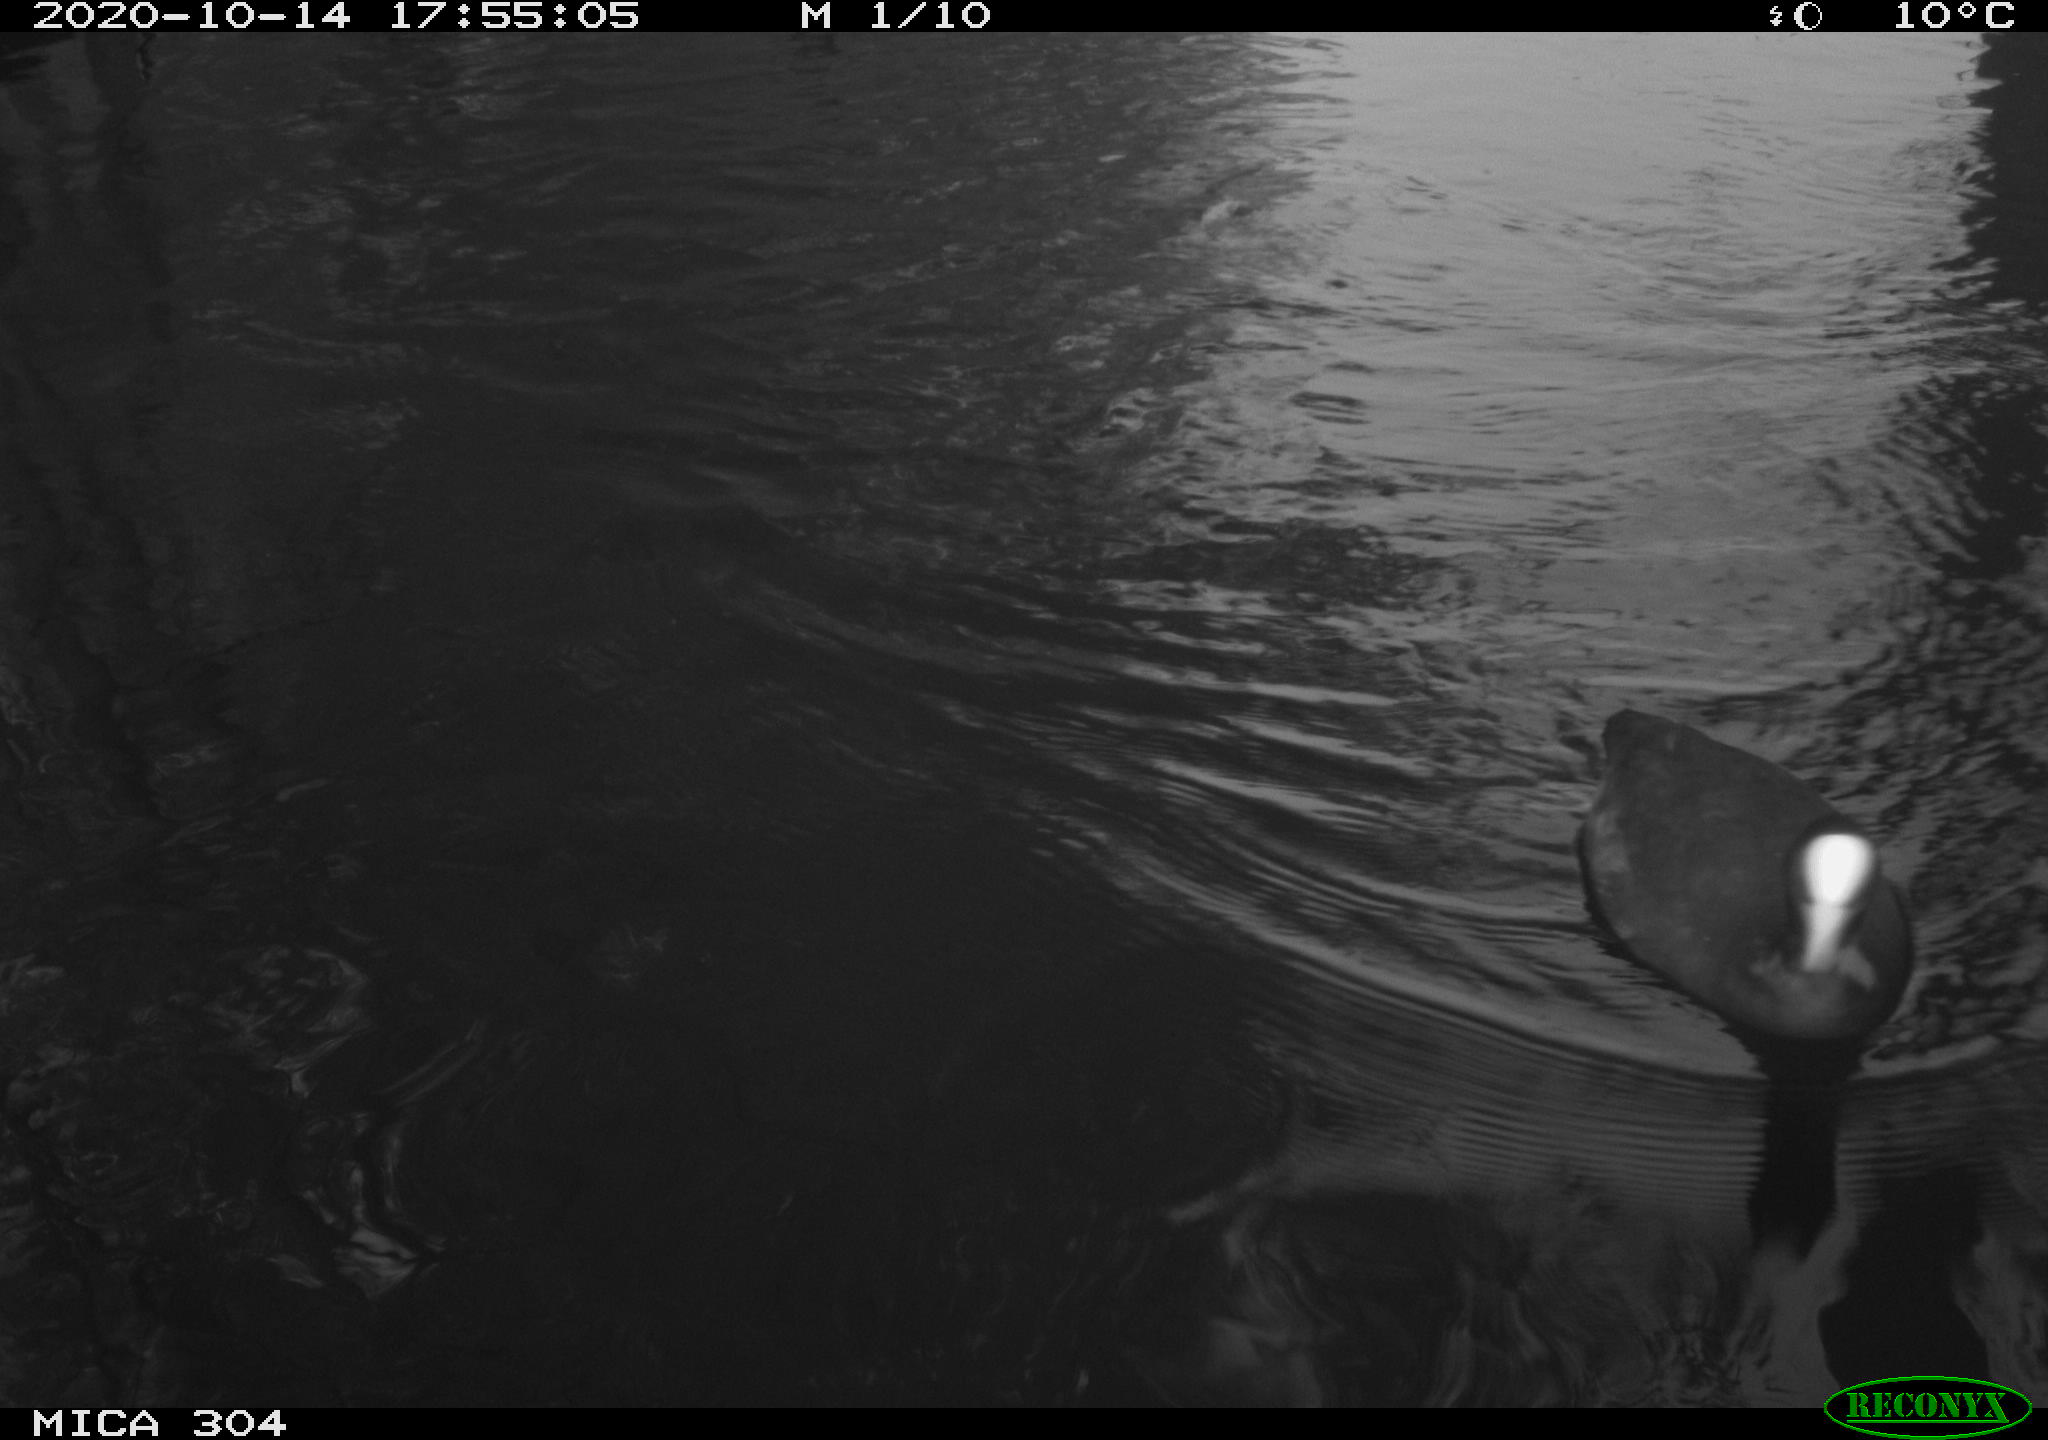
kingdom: Animalia
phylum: Chordata
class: Aves
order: Gruiformes
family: Rallidae
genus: Fulica
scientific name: Fulica atra
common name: Eurasian coot
